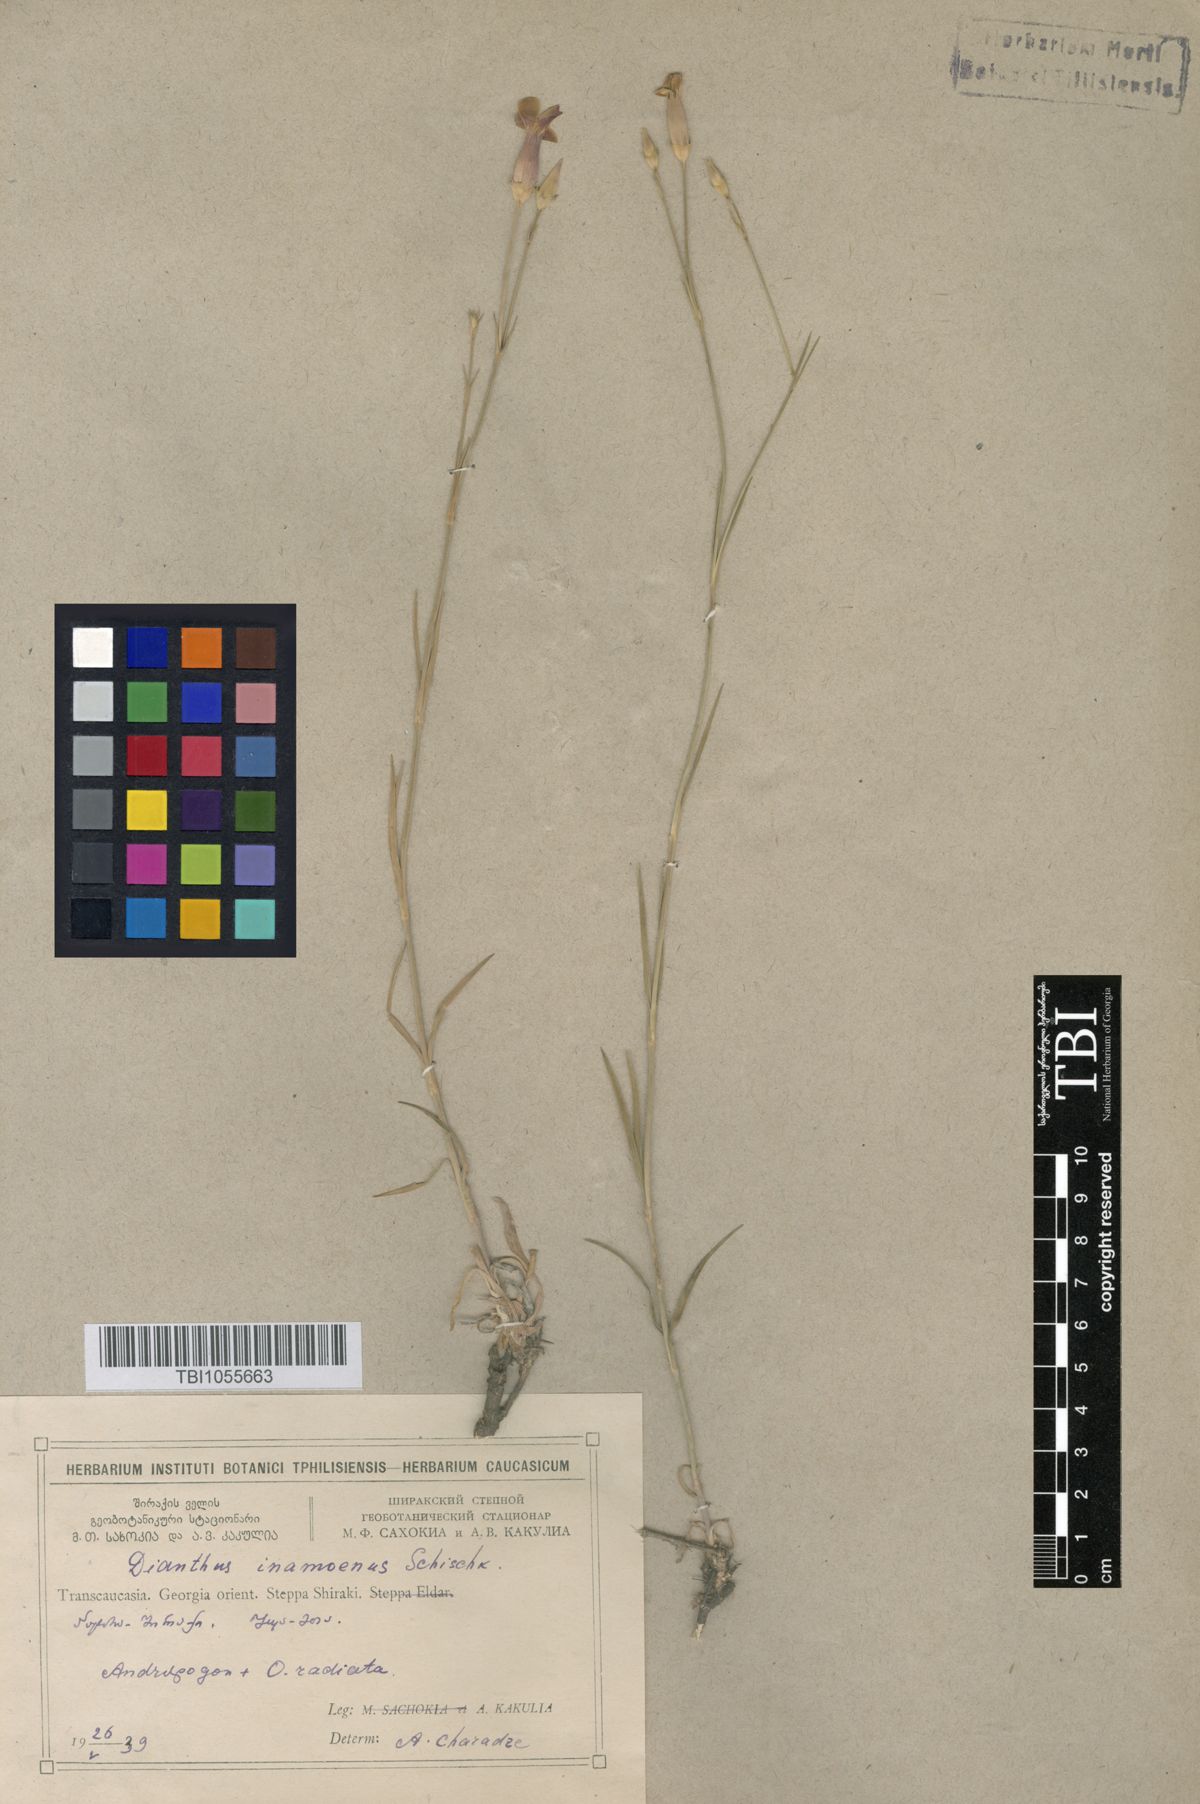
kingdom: Plantae
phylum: Tracheophyta
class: Magnoliopsida
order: Caryophyllales
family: Caryophyllaceae
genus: Dianthus
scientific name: Dianthus inamoenus
